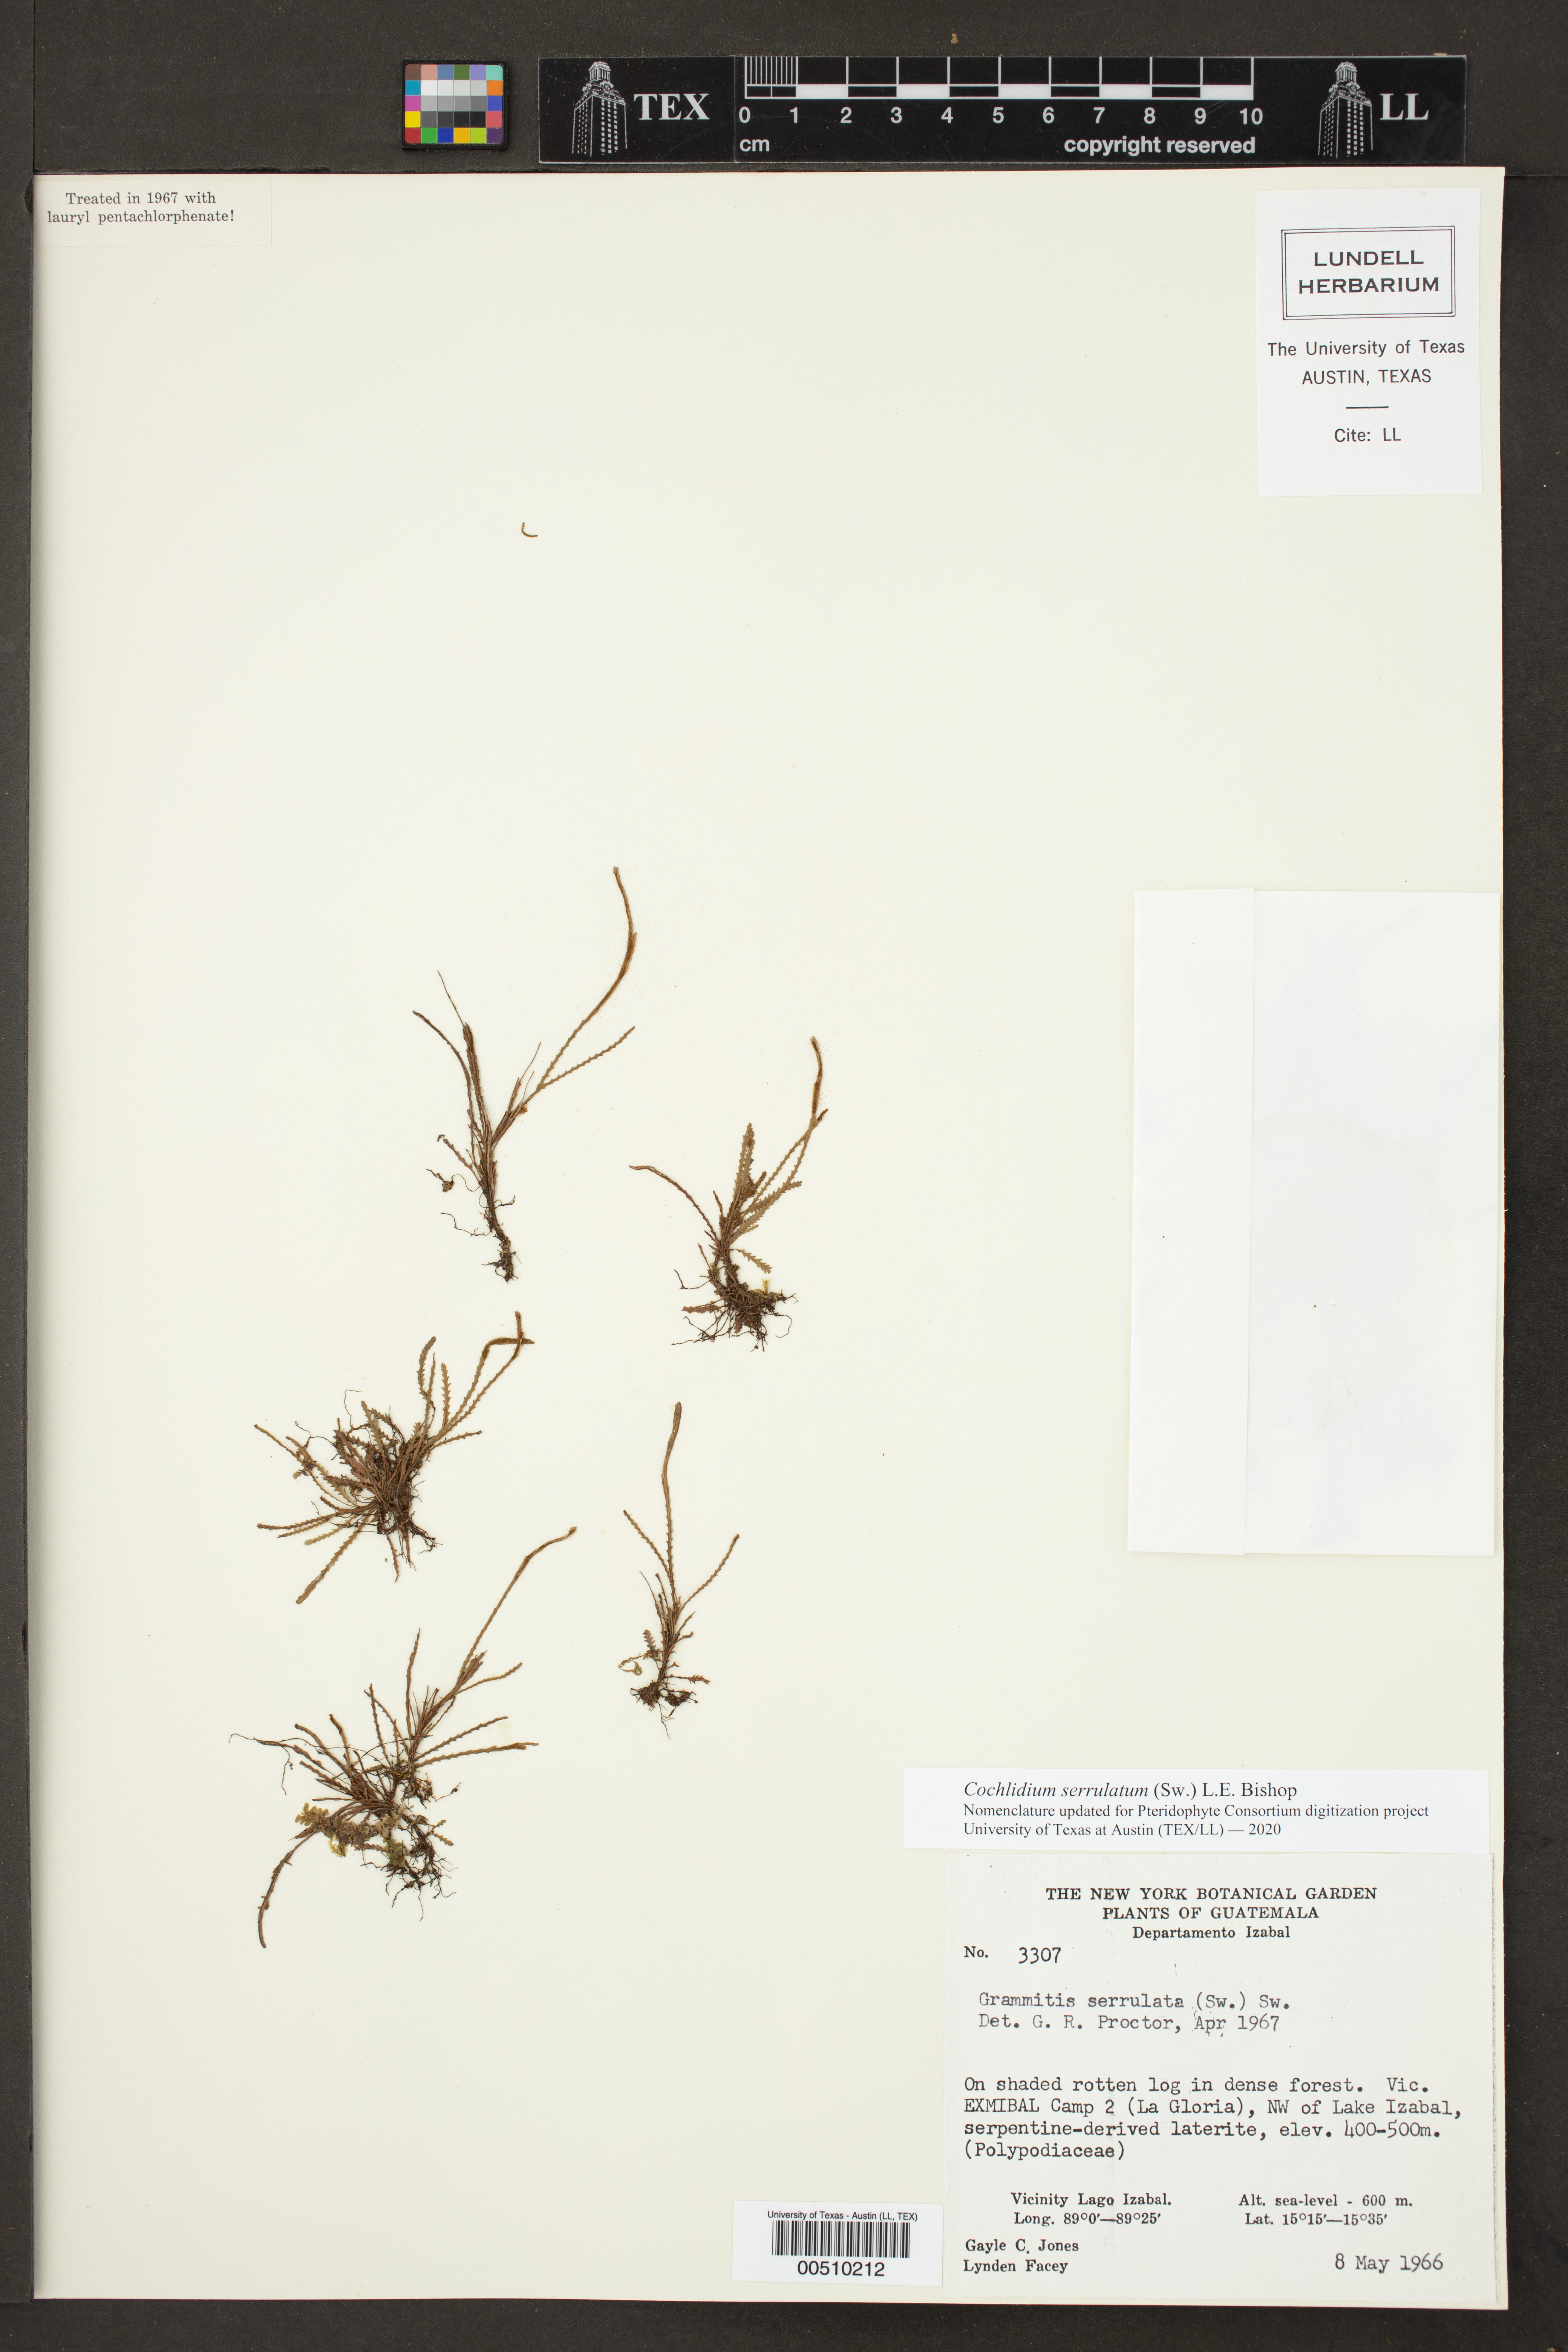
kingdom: Plantae
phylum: Tracheophyta
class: Polypodiopsida
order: Polypodiales
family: Polypodiaceae
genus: Cochlidium
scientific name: Cochlidium serrulatum
